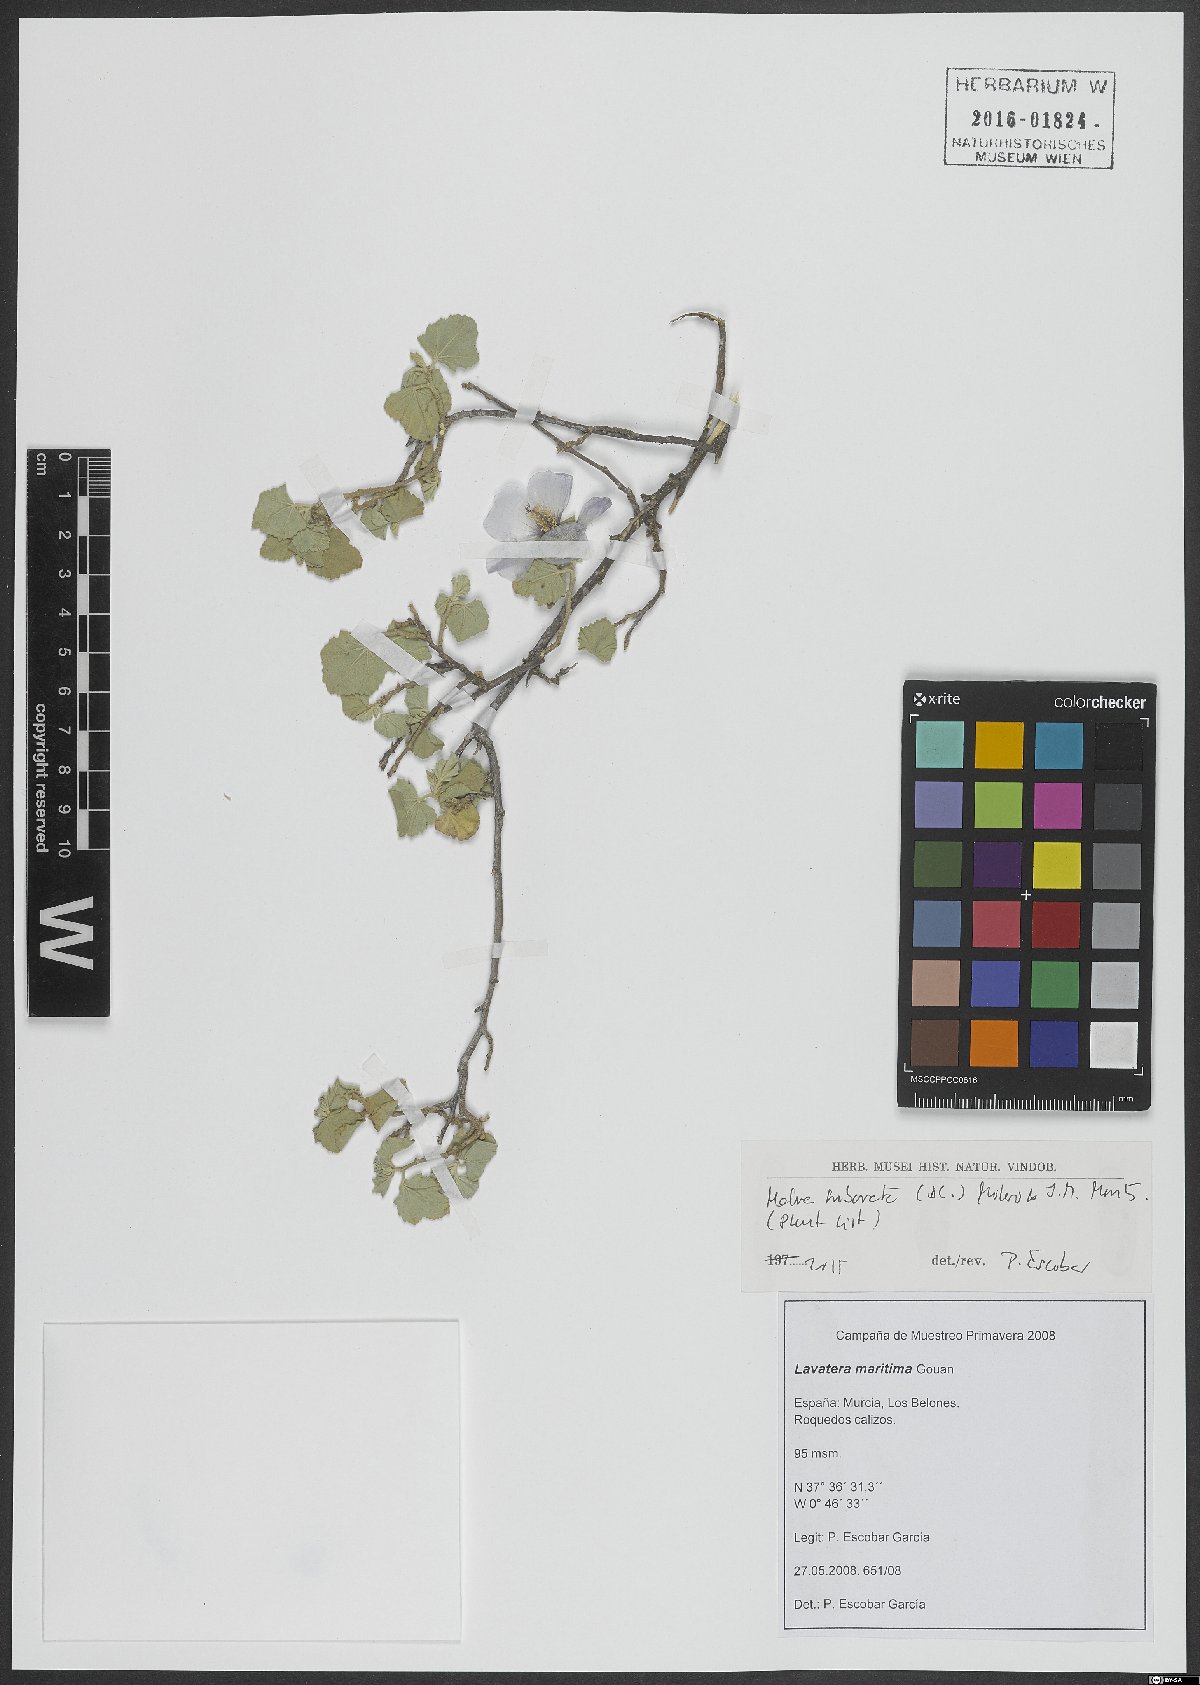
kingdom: Plantae
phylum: Tracheophyta
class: Magnoliopsida
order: Malvales
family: Malvaceae
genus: Malva
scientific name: Malva subovata
